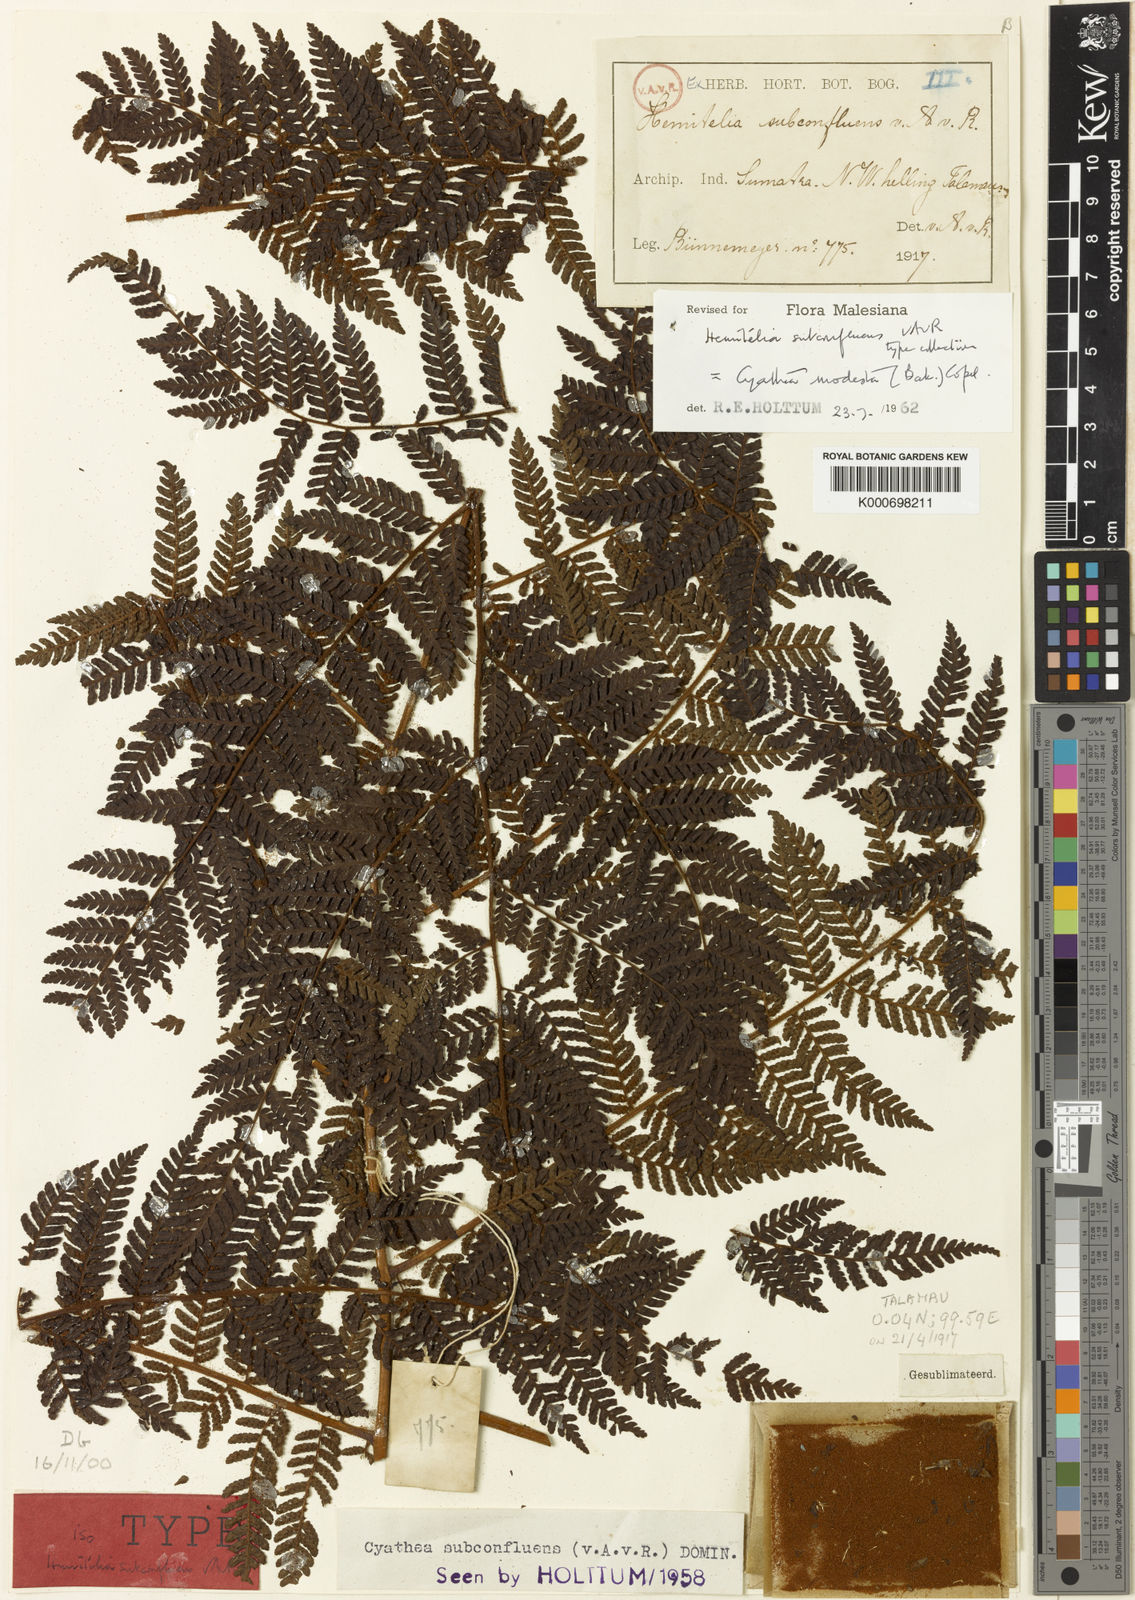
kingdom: Plantae
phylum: Tracheophyta
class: Polypodiopsida
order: Cyatheales
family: Cyatheaceae
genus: Alsophila
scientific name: Alsophila modesta
